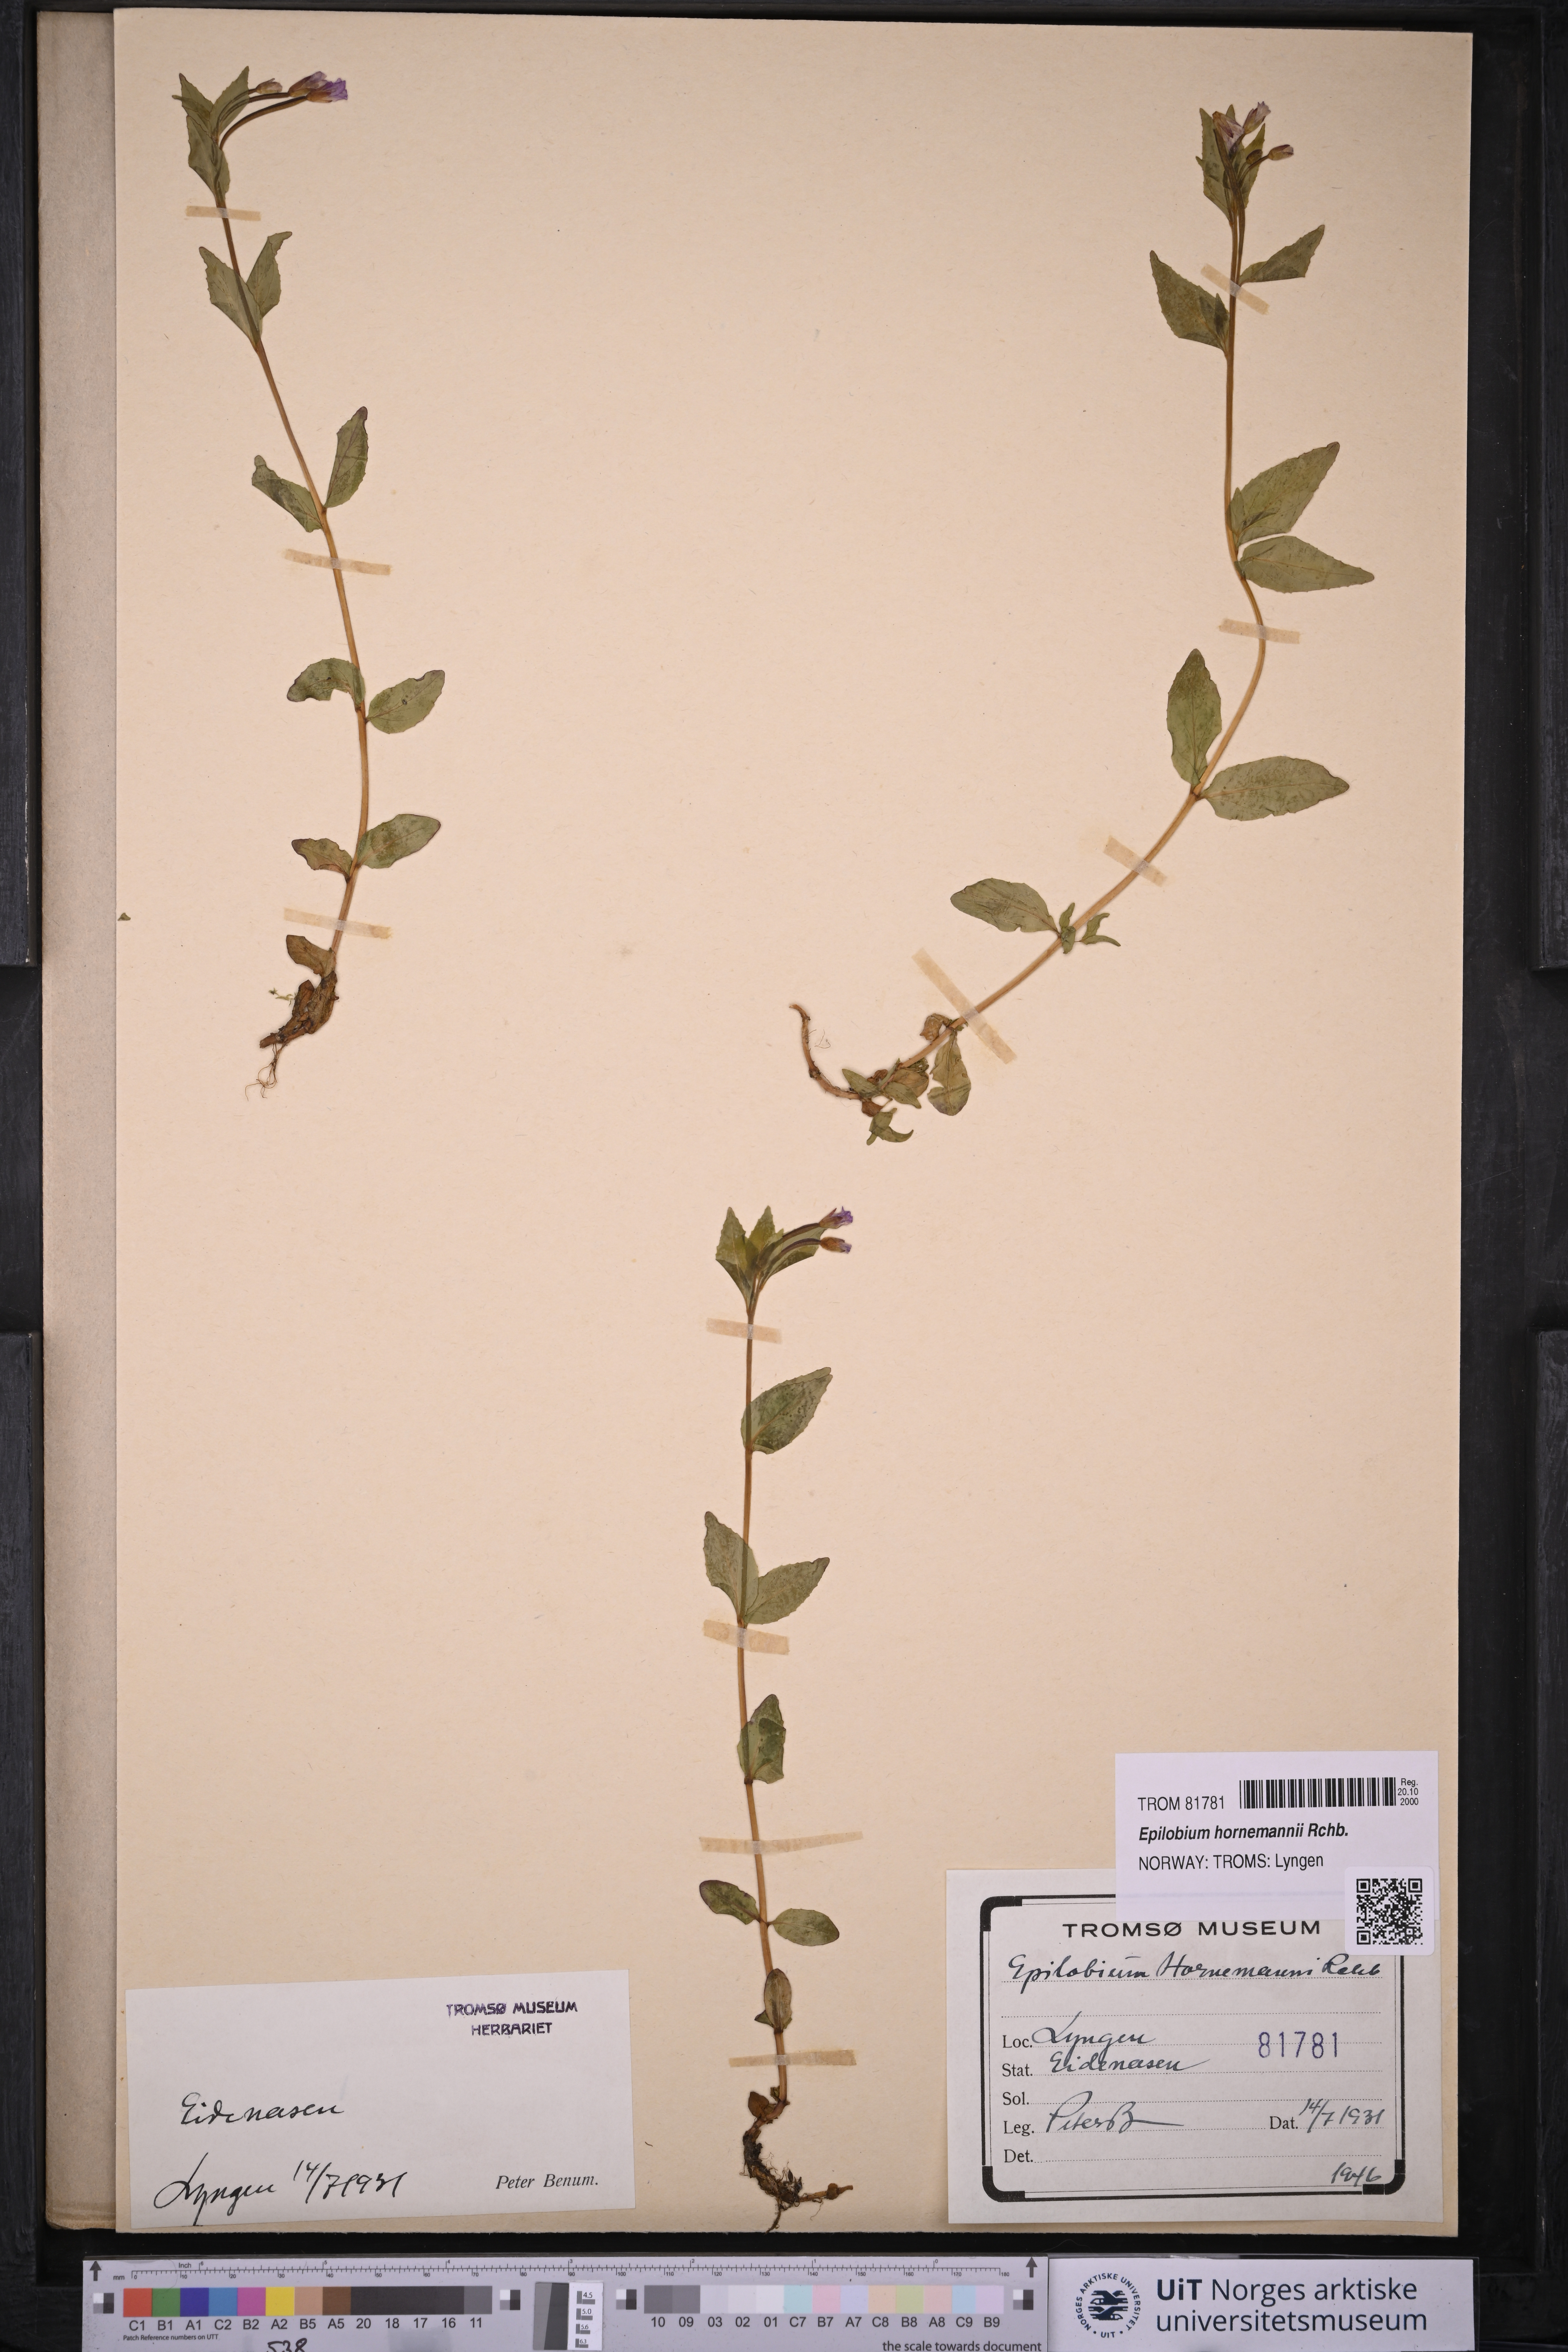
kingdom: Plantae
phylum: Tracheophyta
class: Magnoliopsida
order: Myrtales
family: Onagraceae
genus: Epilobium
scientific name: Epilobium hornemannii
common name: Hornemann's willowherb
